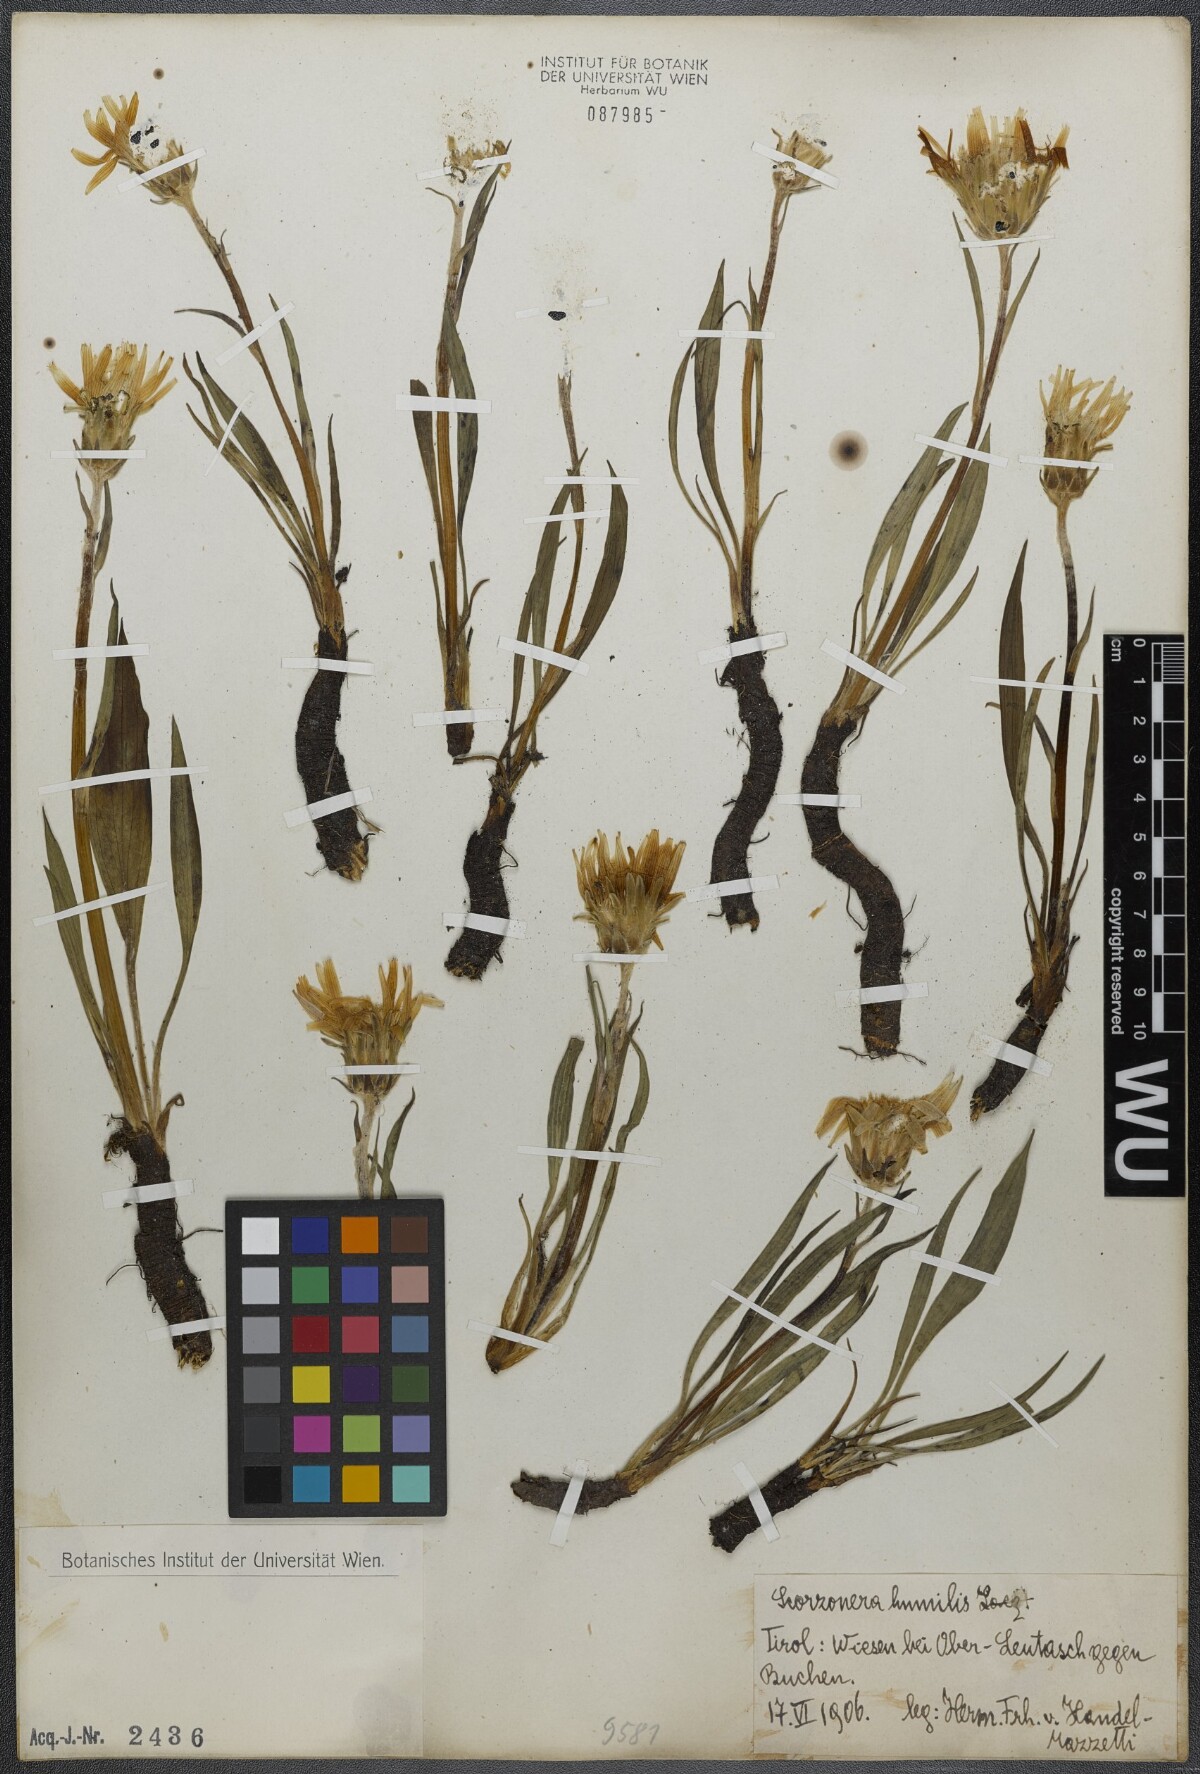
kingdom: Plantae
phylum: Tracheophyta
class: Magnoliopsida
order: Asterales
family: Asteraceae
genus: Scorzonera
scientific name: Scorzonera humilis
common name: Viper's-grass
